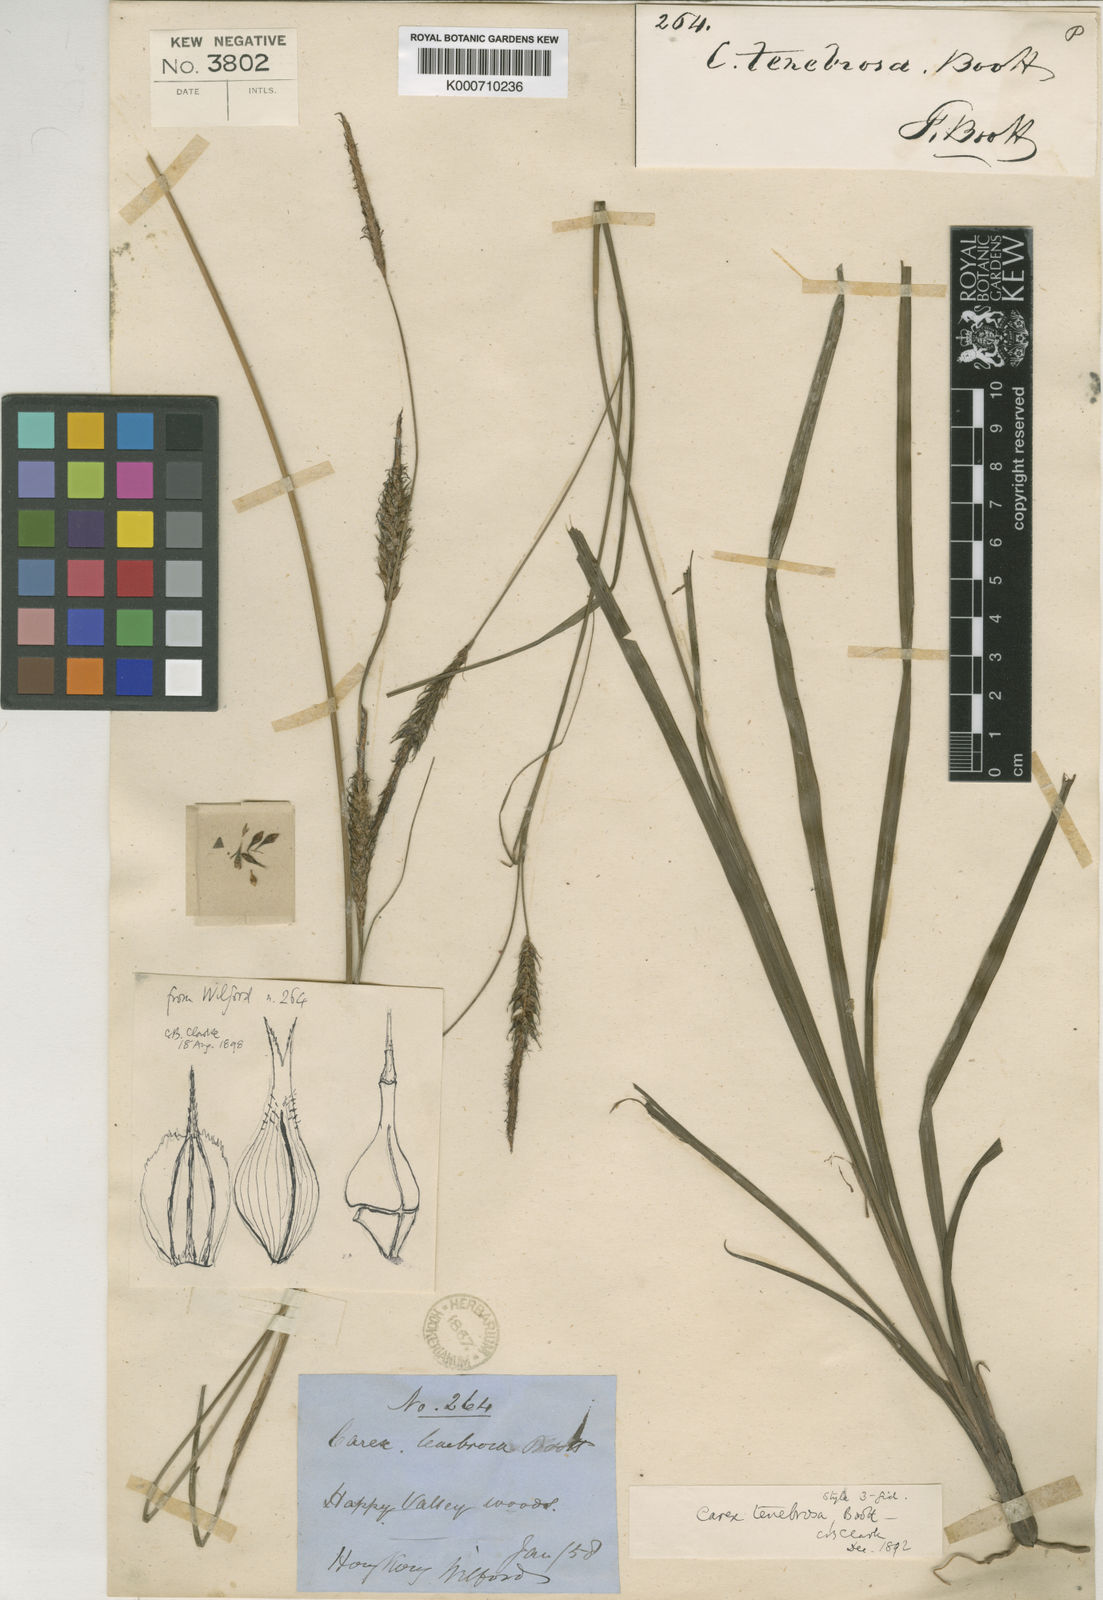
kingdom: Plantae
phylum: Tracheophyta
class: Liliopsida
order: Poales
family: Cyperaceae
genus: Carex
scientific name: Carex tenebrosa
